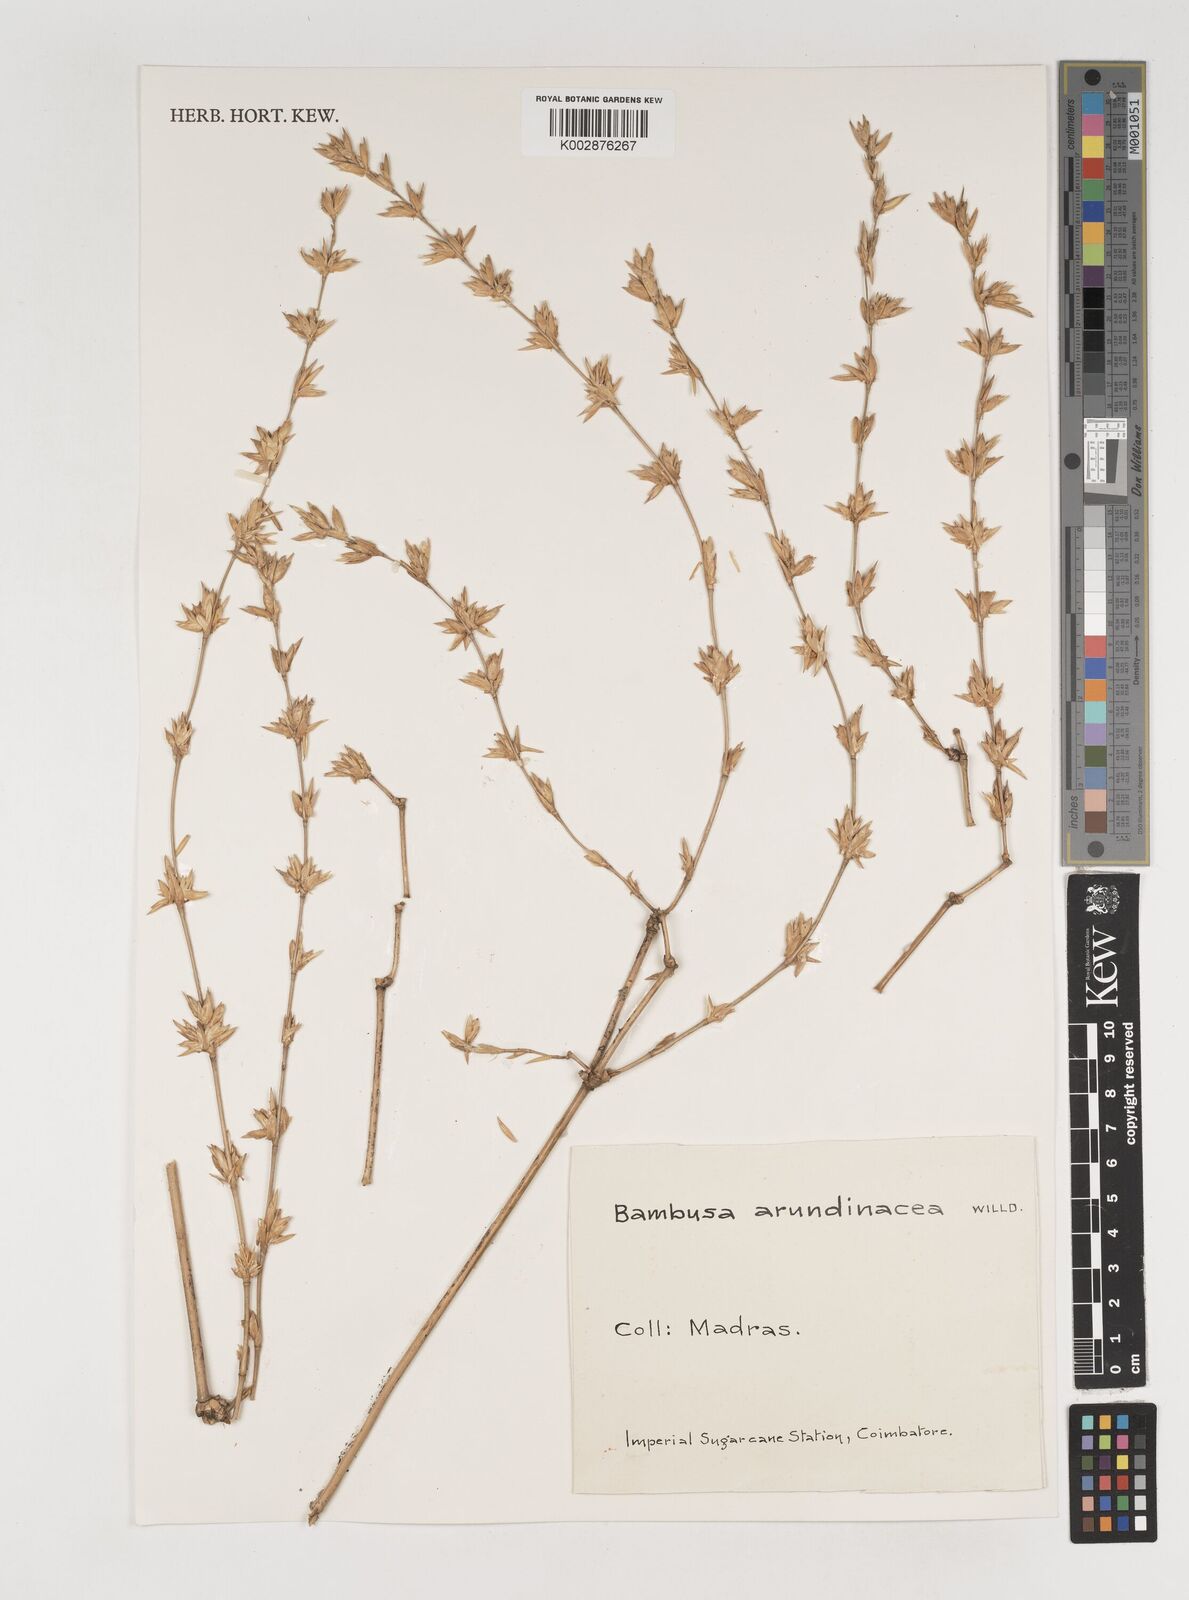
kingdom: Plantae
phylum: Tracheophyta
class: Liliopsida
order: Poales
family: Poaceae
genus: Bambusa
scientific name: Bambusa bambos
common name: Indian thorny bamboo
